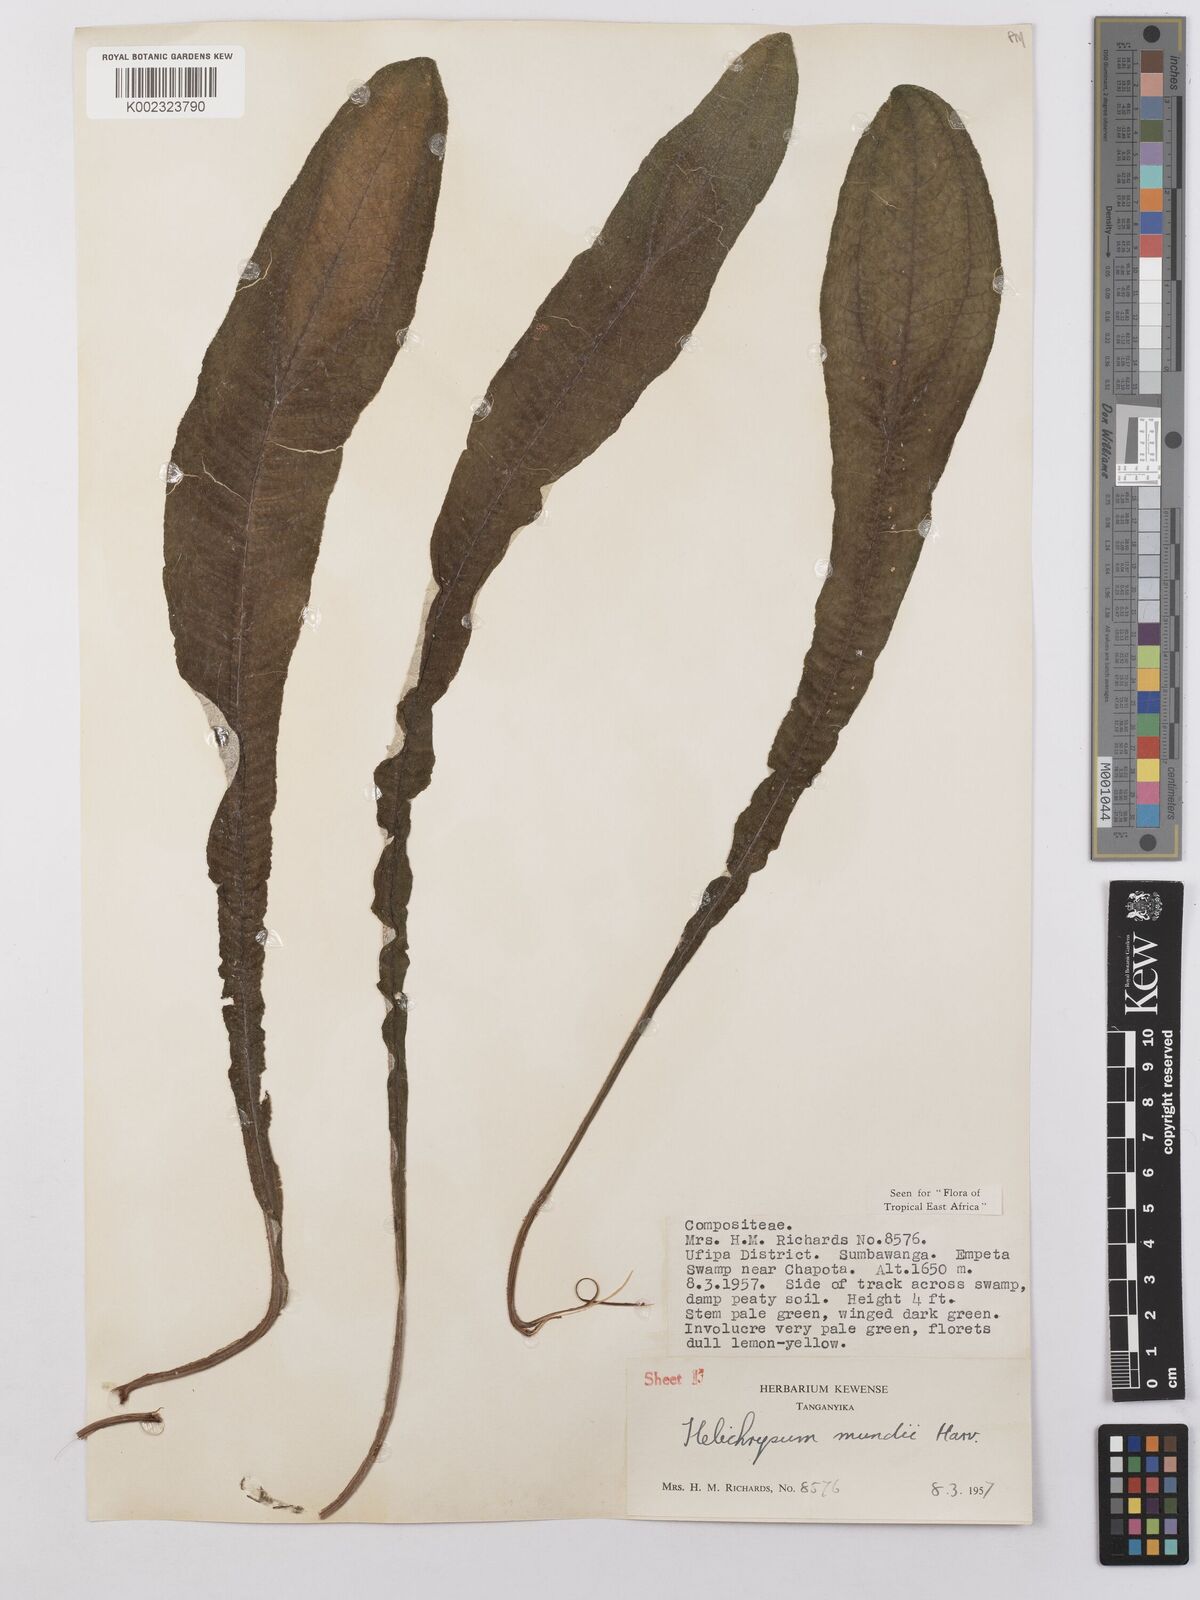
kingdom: Plantae
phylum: Tracheophyta
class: Magnoliopsida
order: Asterales
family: Asteraceae
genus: Helichrysum
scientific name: Helichrysum mundii
